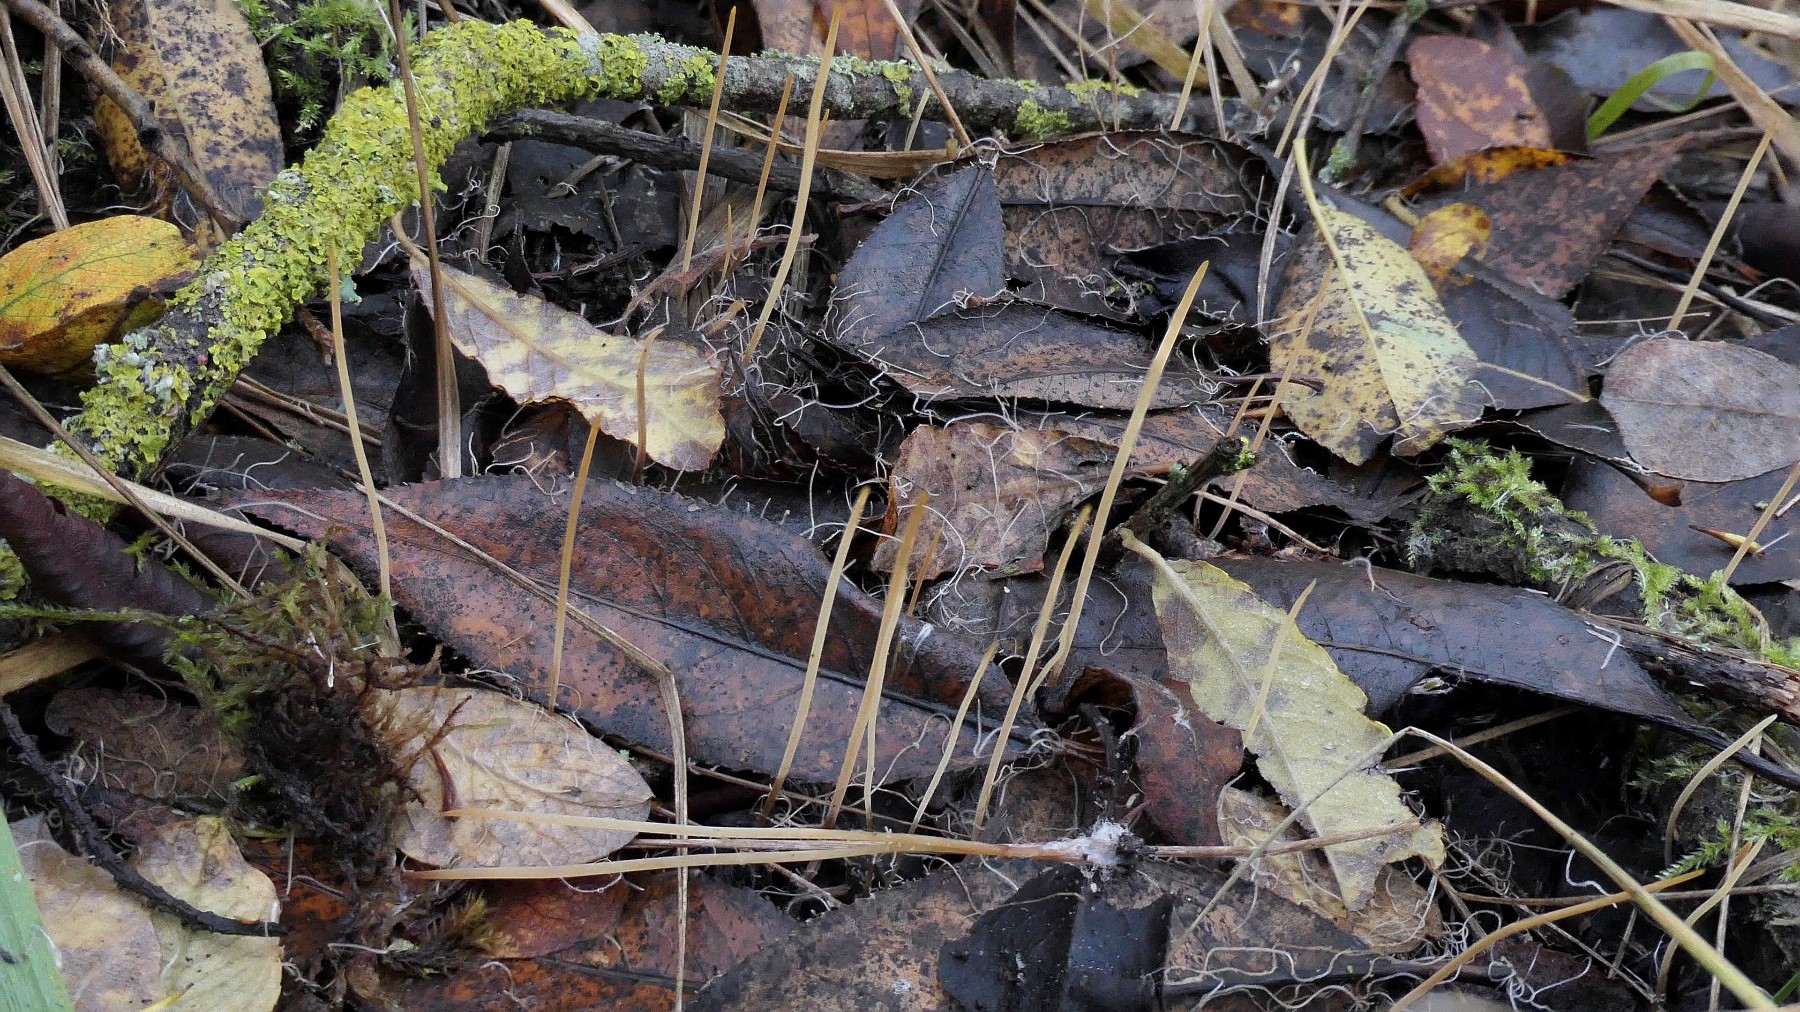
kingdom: Fungi
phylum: Basidiomycota
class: Agaricomycetes
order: Agaricales
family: Typhulaceae
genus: Typhula
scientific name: Typhula juncea
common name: trådagtig rørkølle
